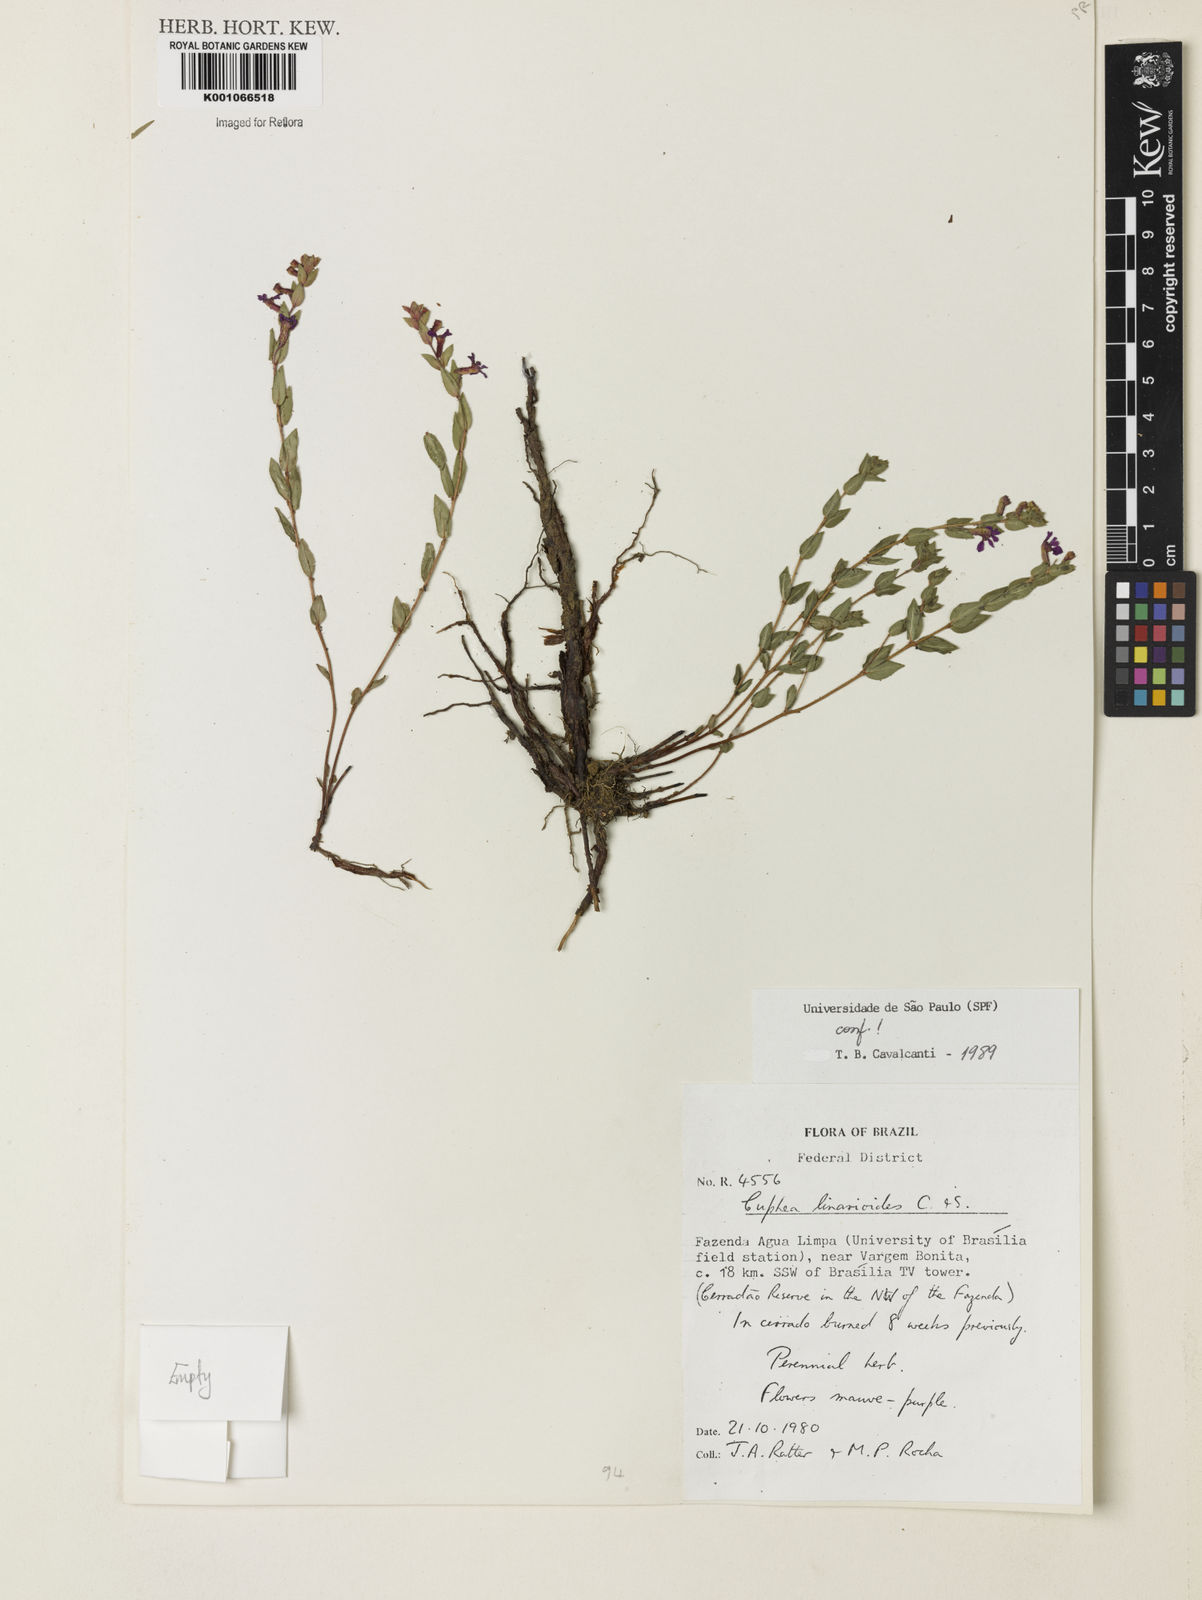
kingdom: Plantae
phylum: Tracheophyta
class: Magnoliopsida
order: Myrtales
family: Lythraceae
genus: Cuphea
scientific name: Cuphea linarioides
